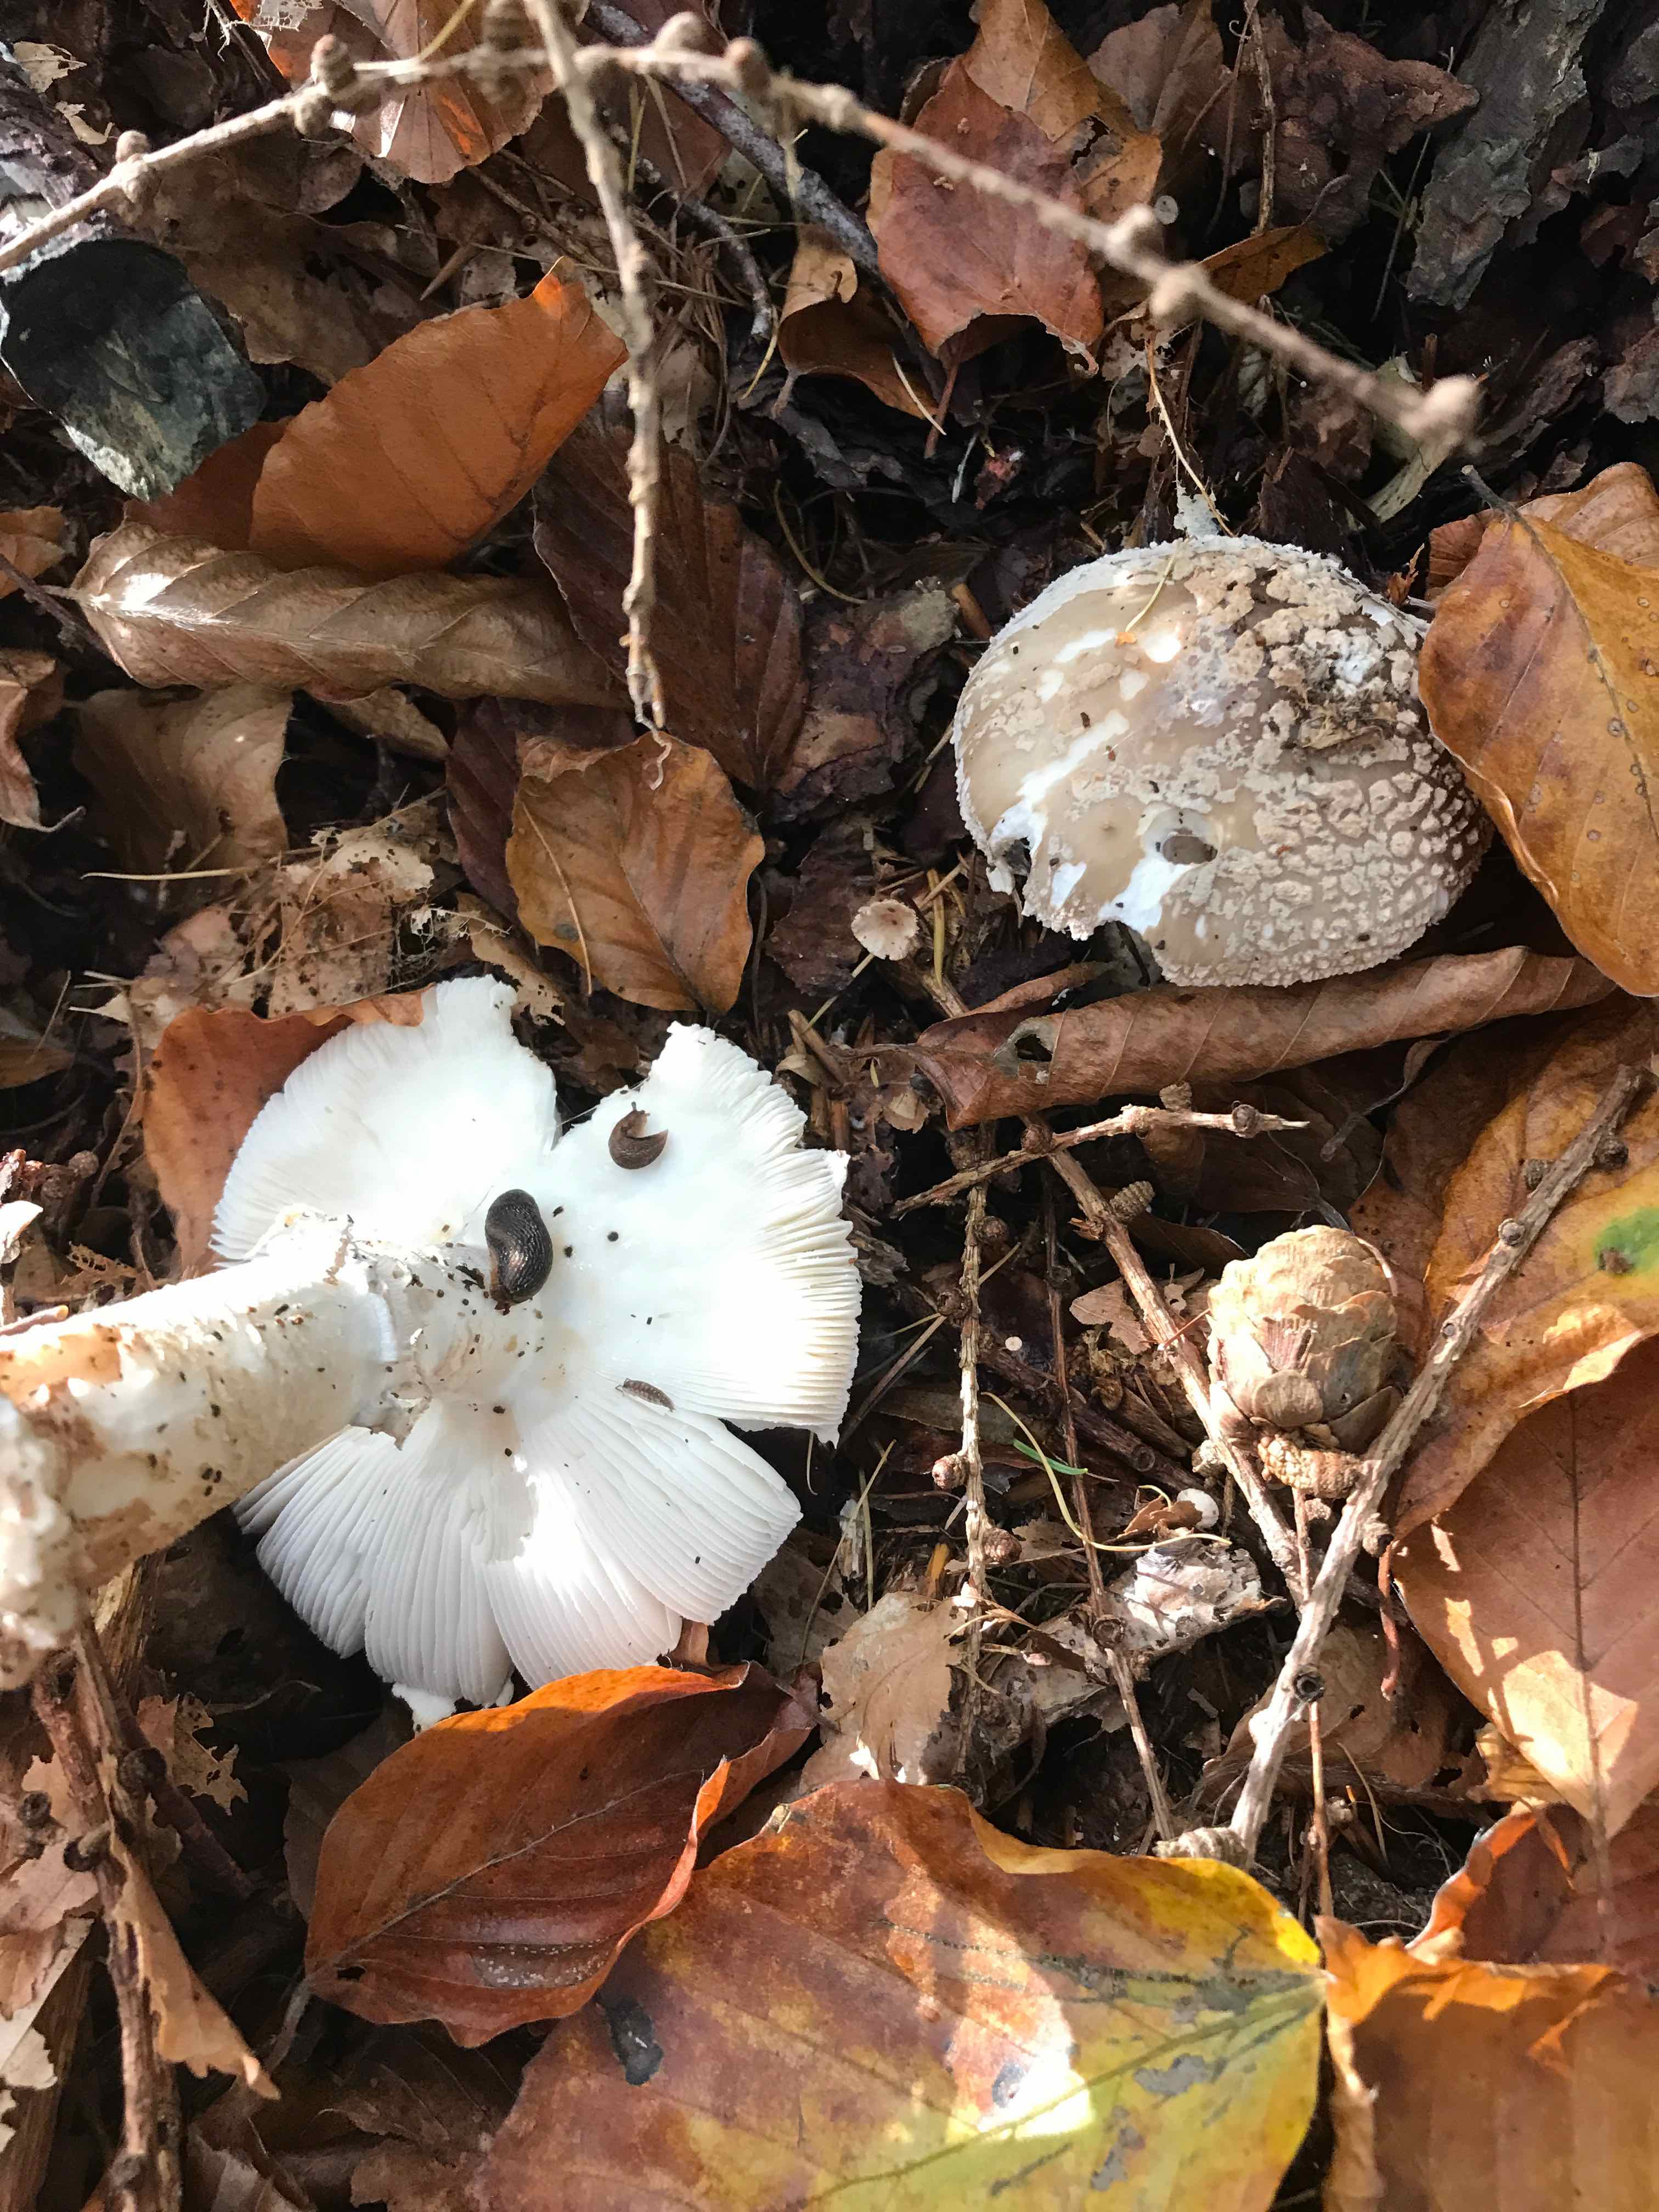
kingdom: Fungi
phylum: Basidiomycota
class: Agaricomycetes
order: Agaricales
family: Amanitaceae
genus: Amanita
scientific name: Amanita
